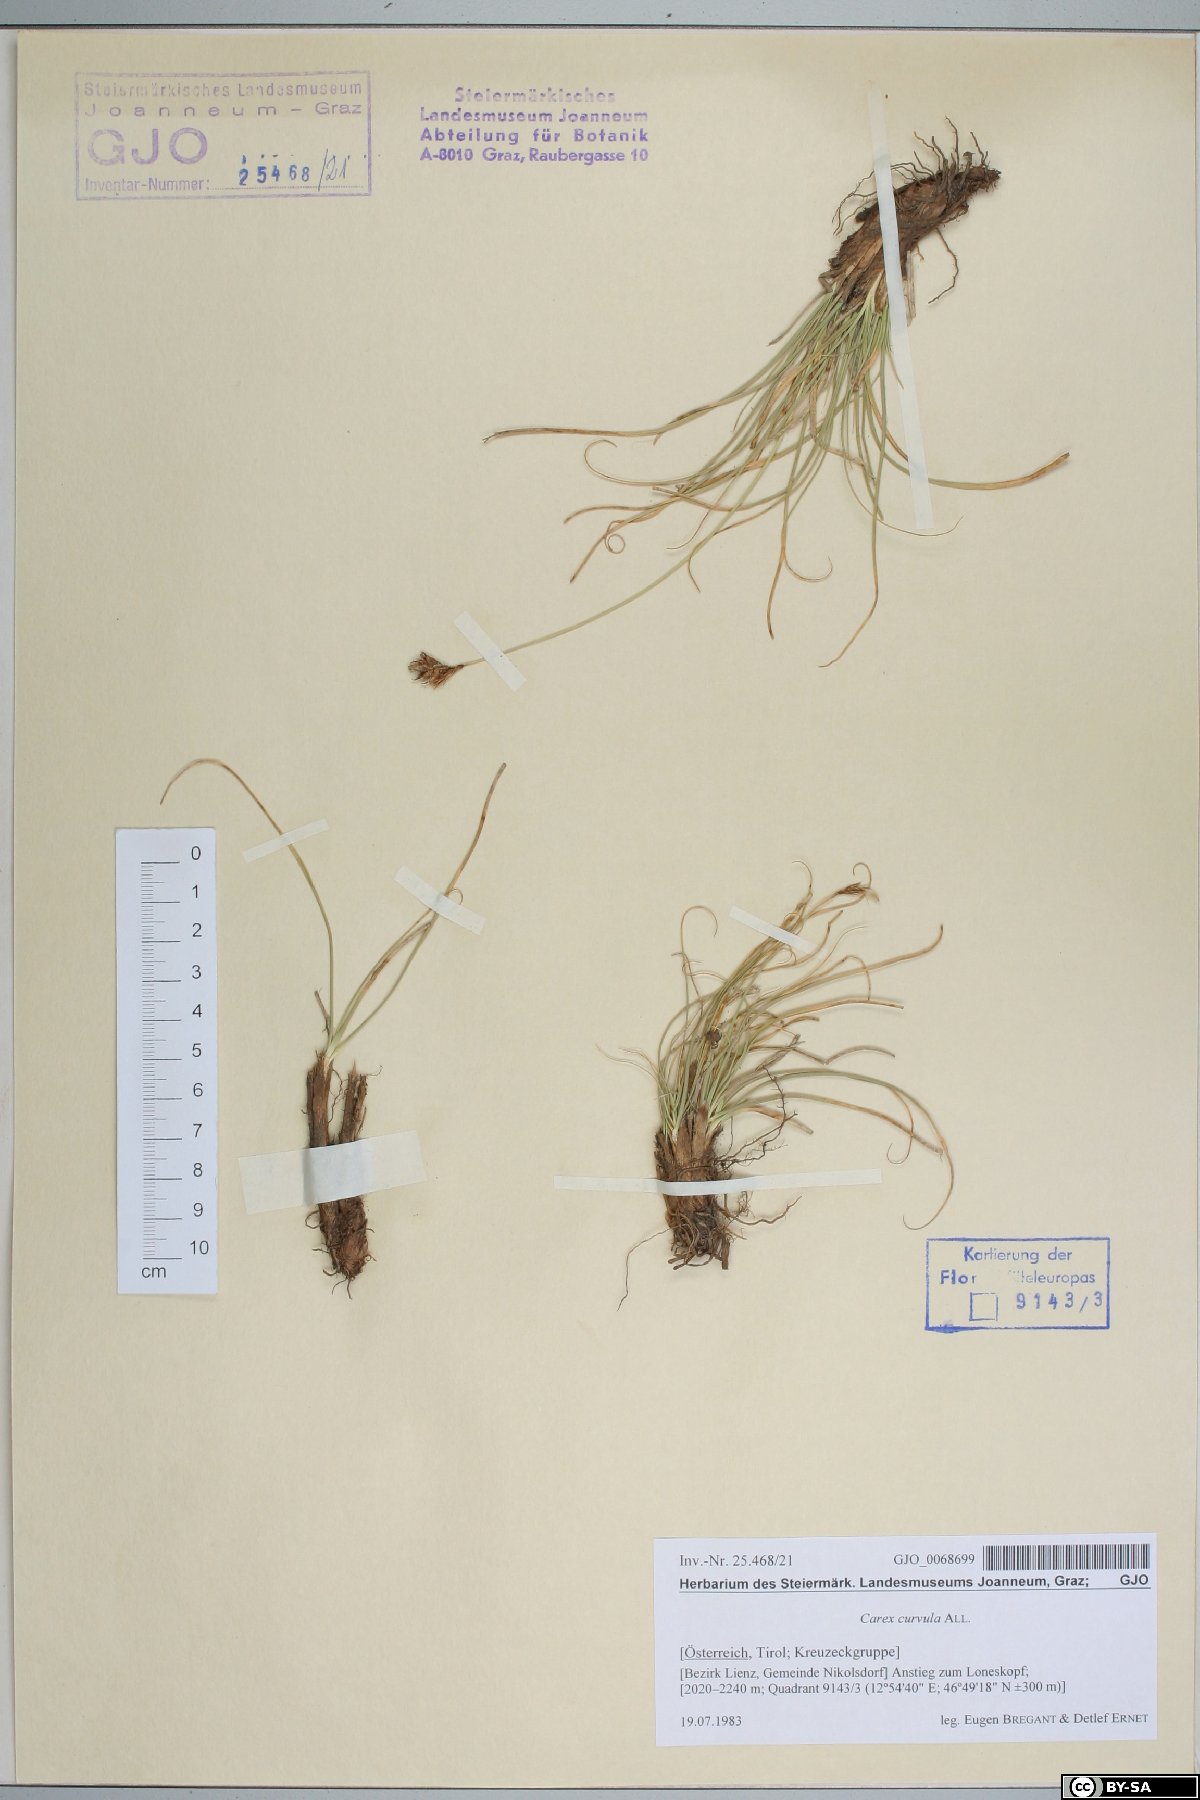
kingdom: Plantae
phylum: Tracheophyta
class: Liliopsida
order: Poales
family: Cyperaceae
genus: Carex
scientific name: Carex curvula
